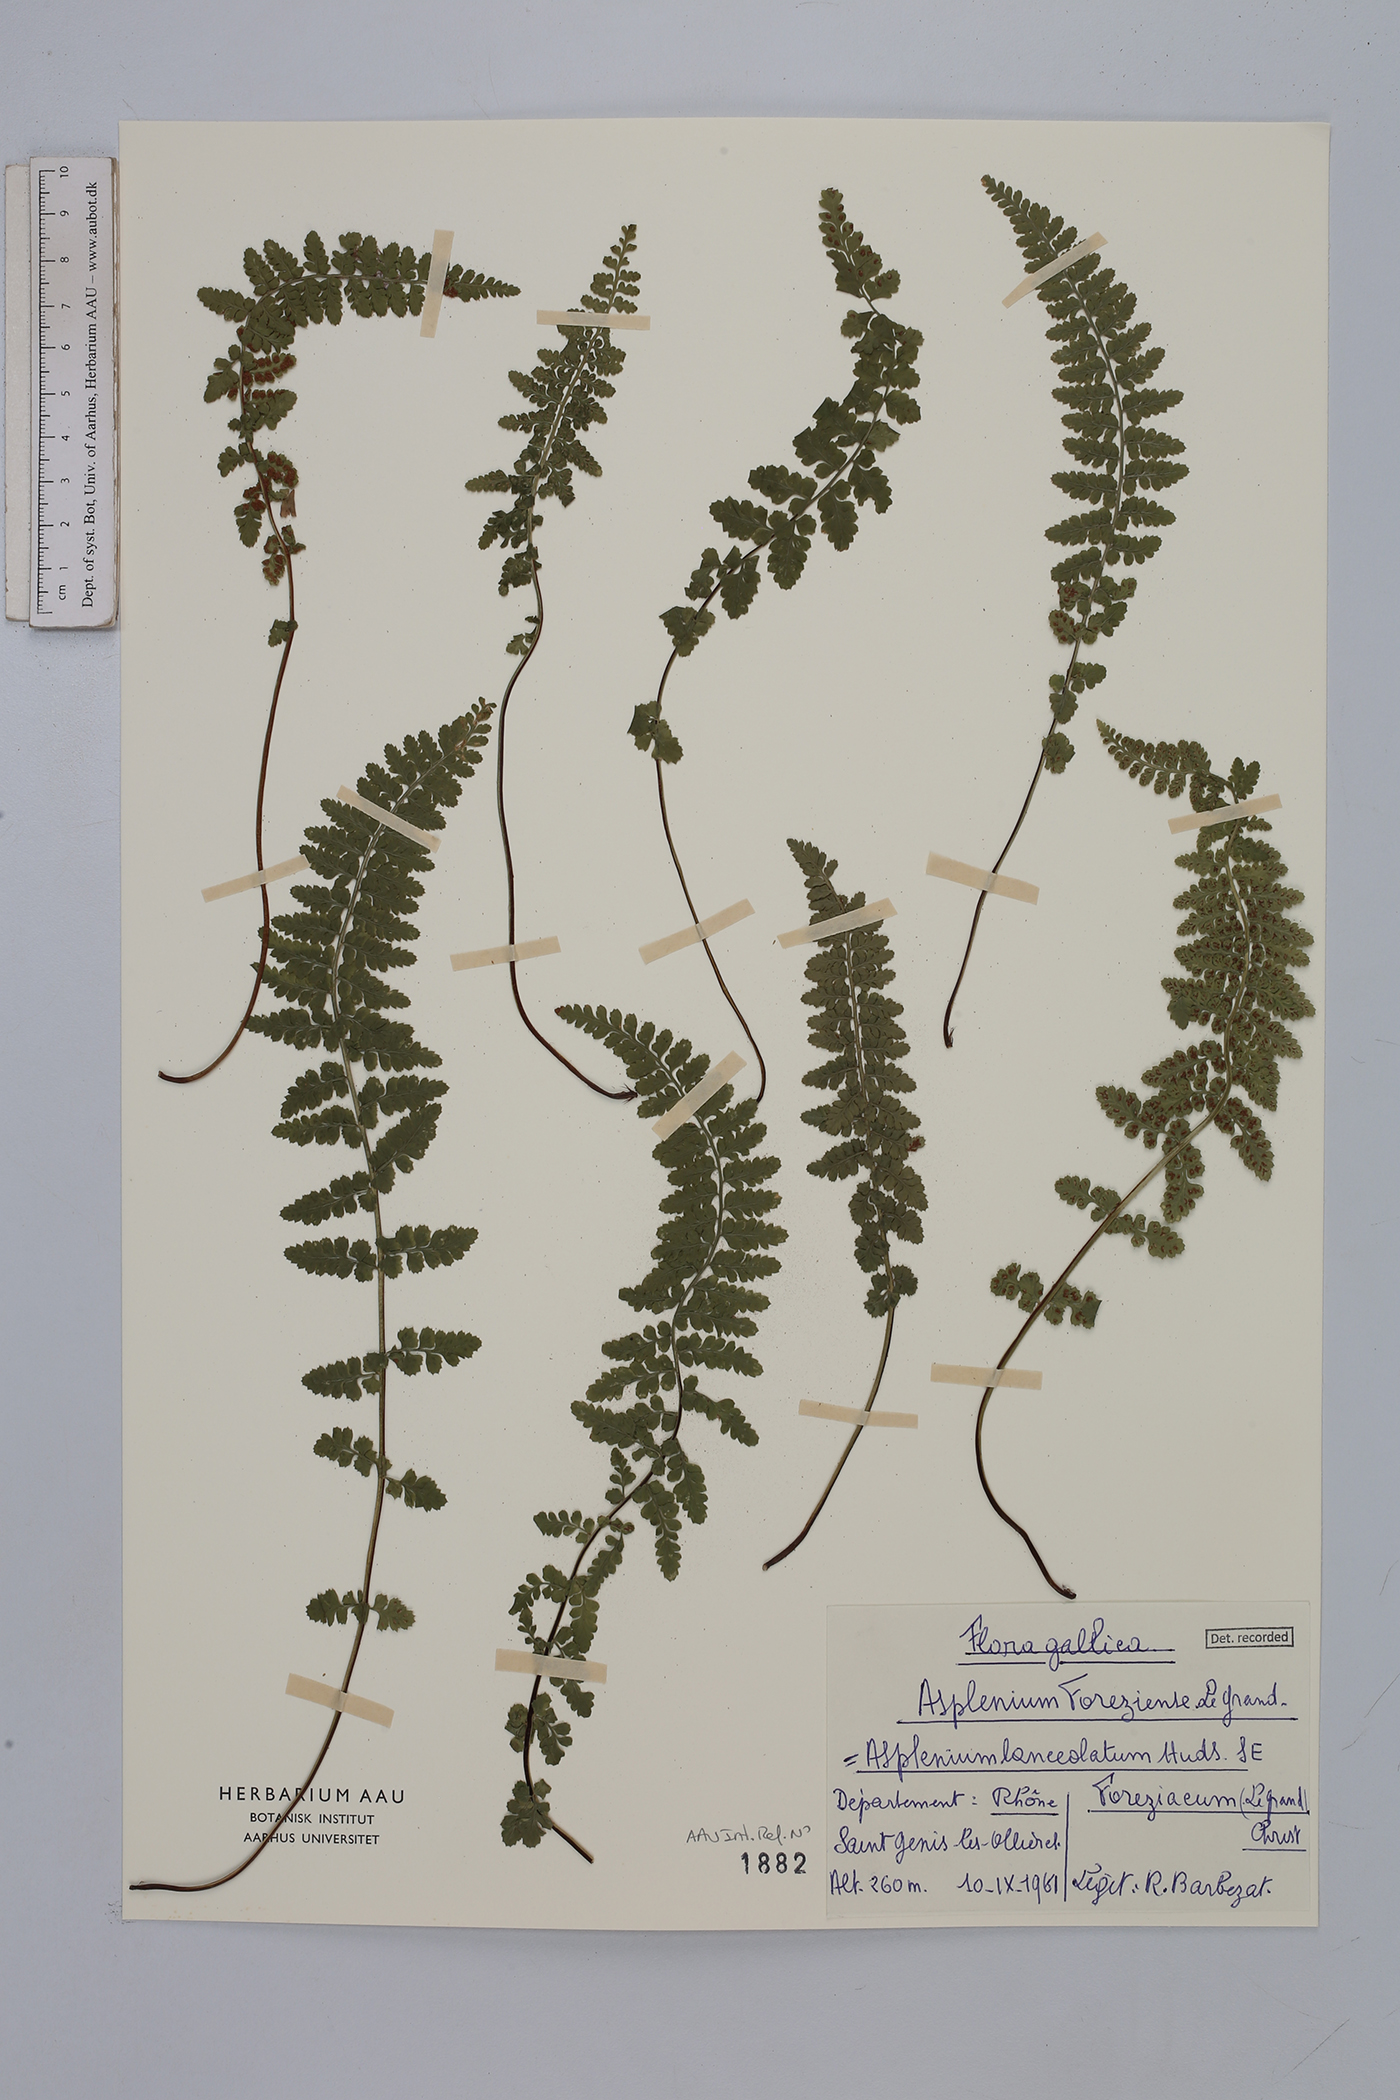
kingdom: Plantae
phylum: Tracheophyta
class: Polypodiopsida
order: Polypodiales
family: Aspleniaceae
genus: Asplenium
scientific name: Asplenium foreziense
